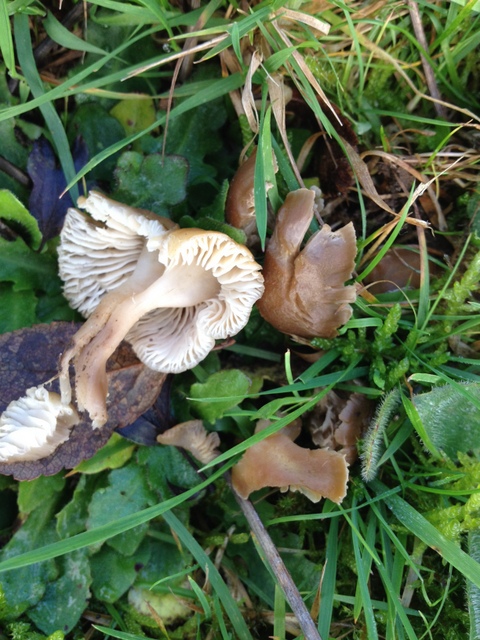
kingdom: Fungi
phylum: Basidiomycota
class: Agaricomycetes
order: Agaricales
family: Clavariaceae
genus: Camarophyllopsis
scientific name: Camarophyllopsis schulzeri
